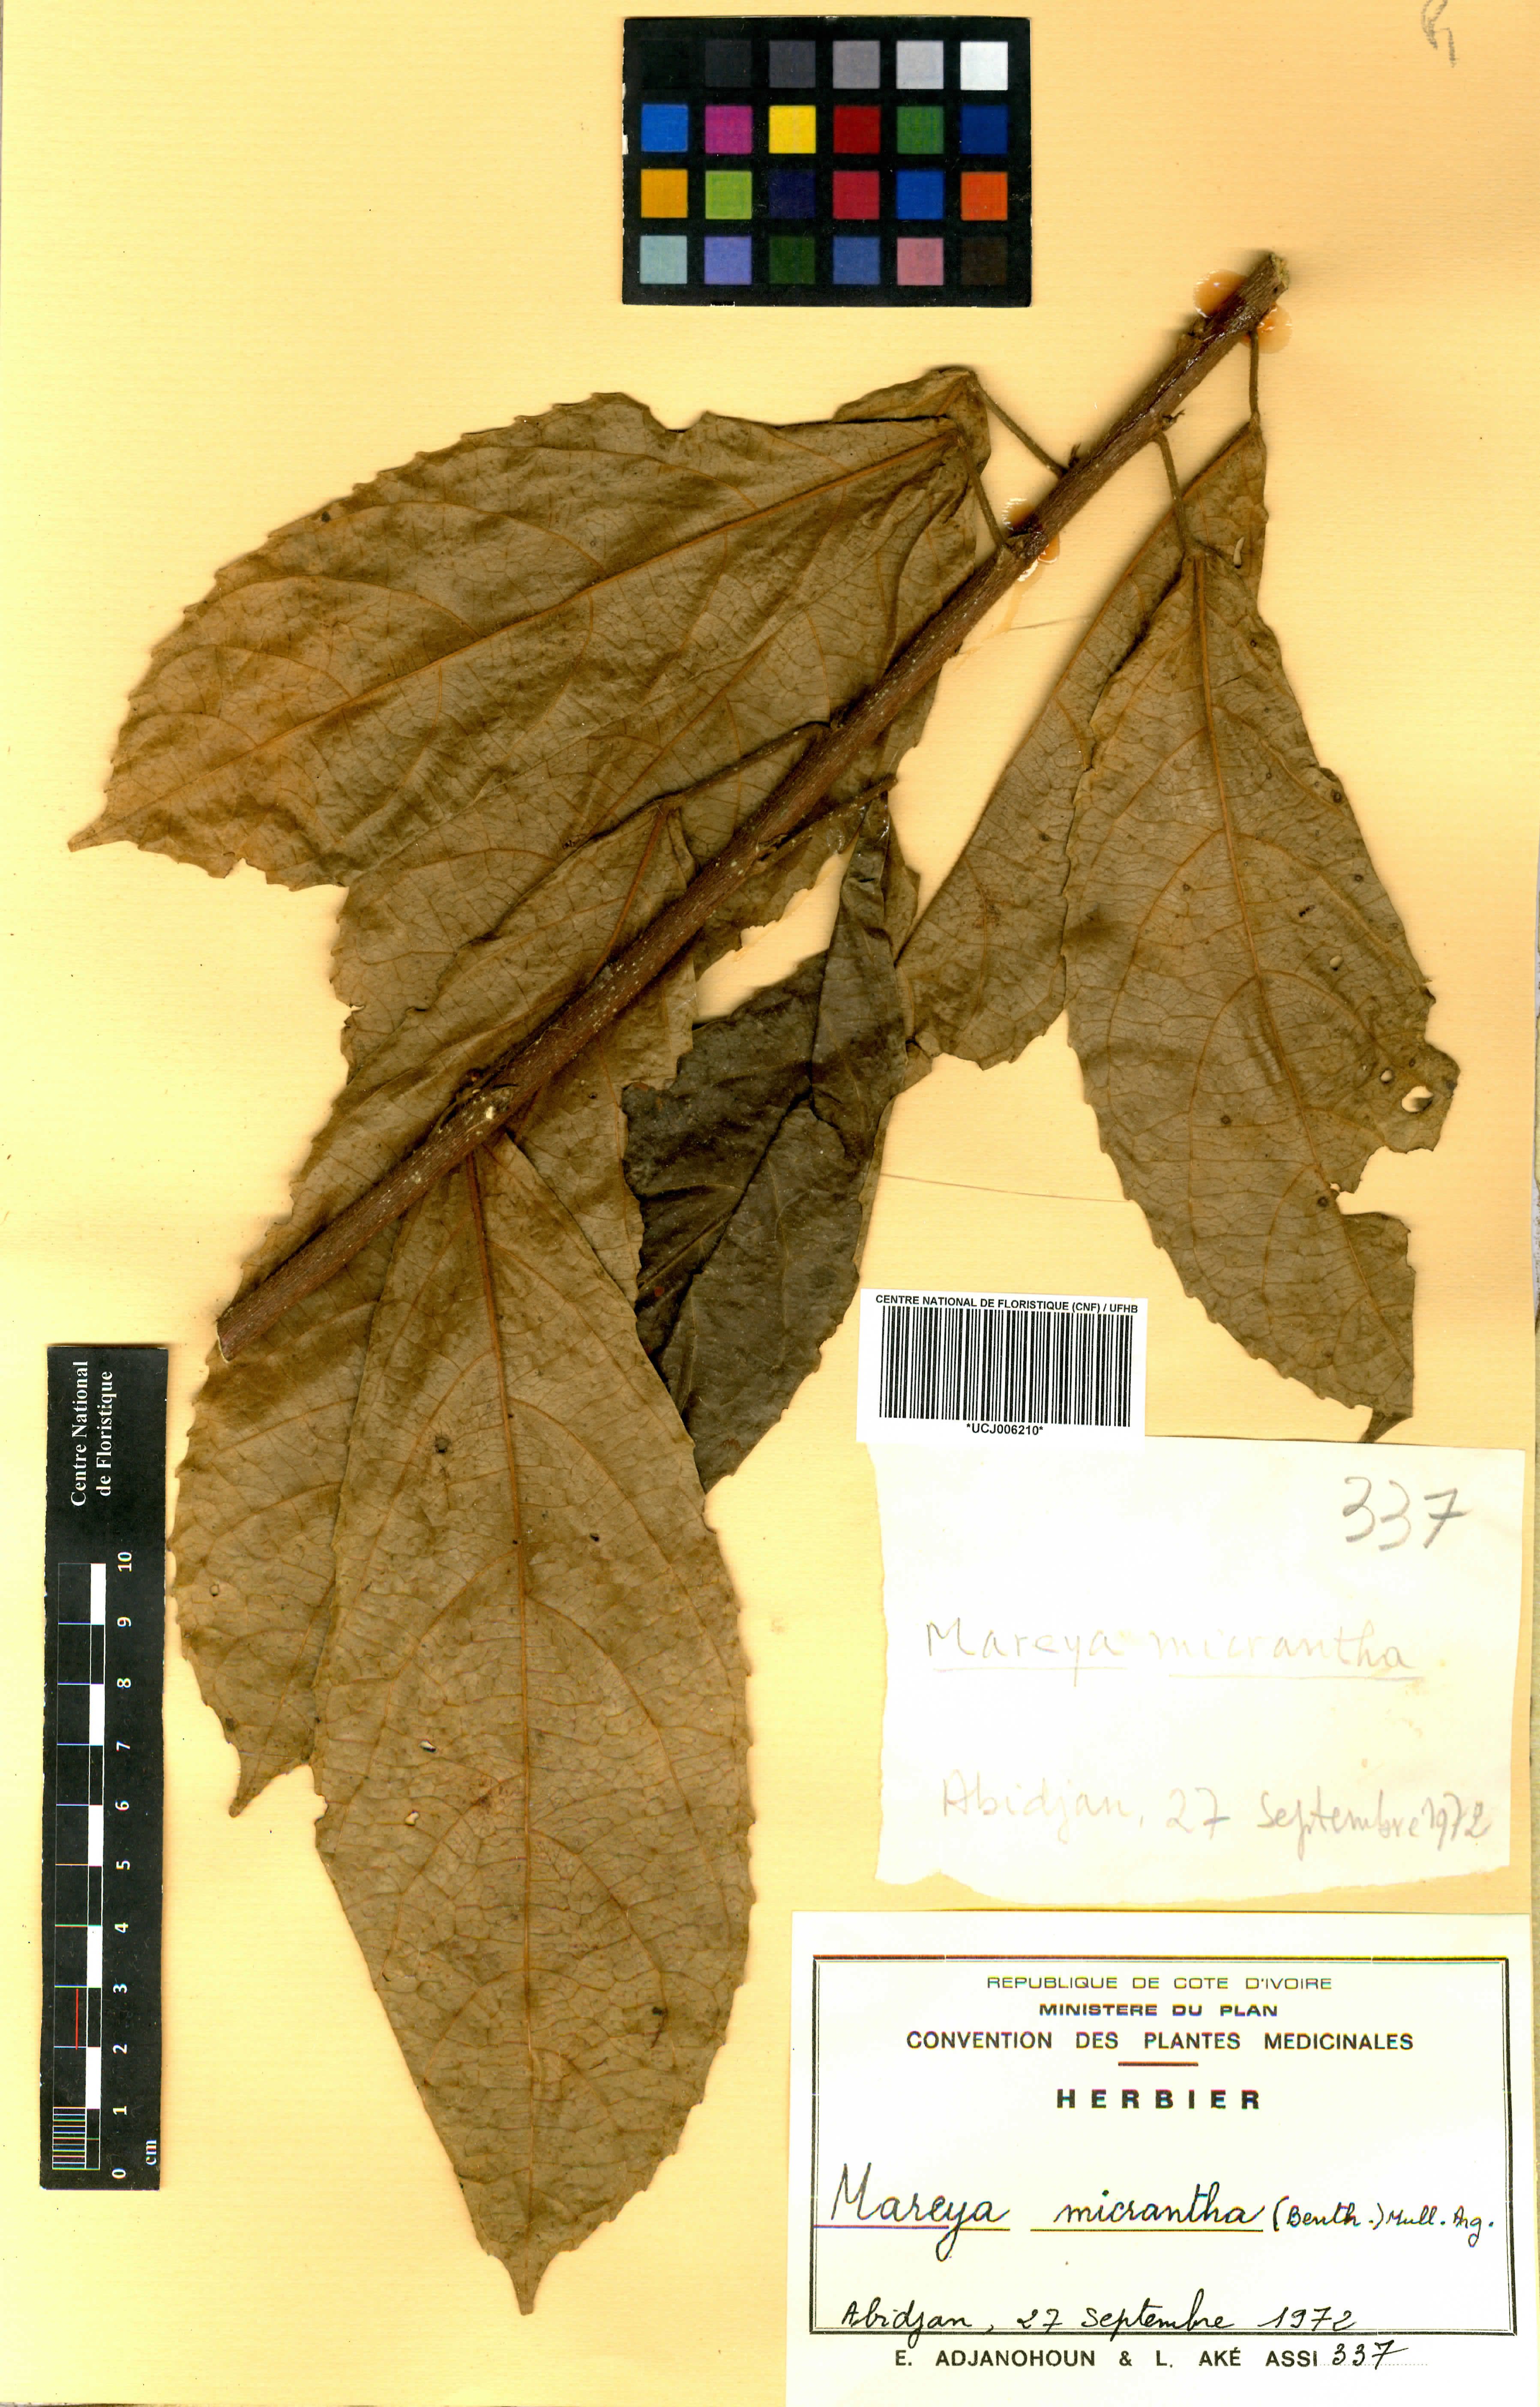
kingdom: Plantae
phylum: Tracheophyta
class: Magnoliopsida
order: Malpighiales
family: Euphorbiaceae
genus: Mareya
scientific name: Mareya micrantha
